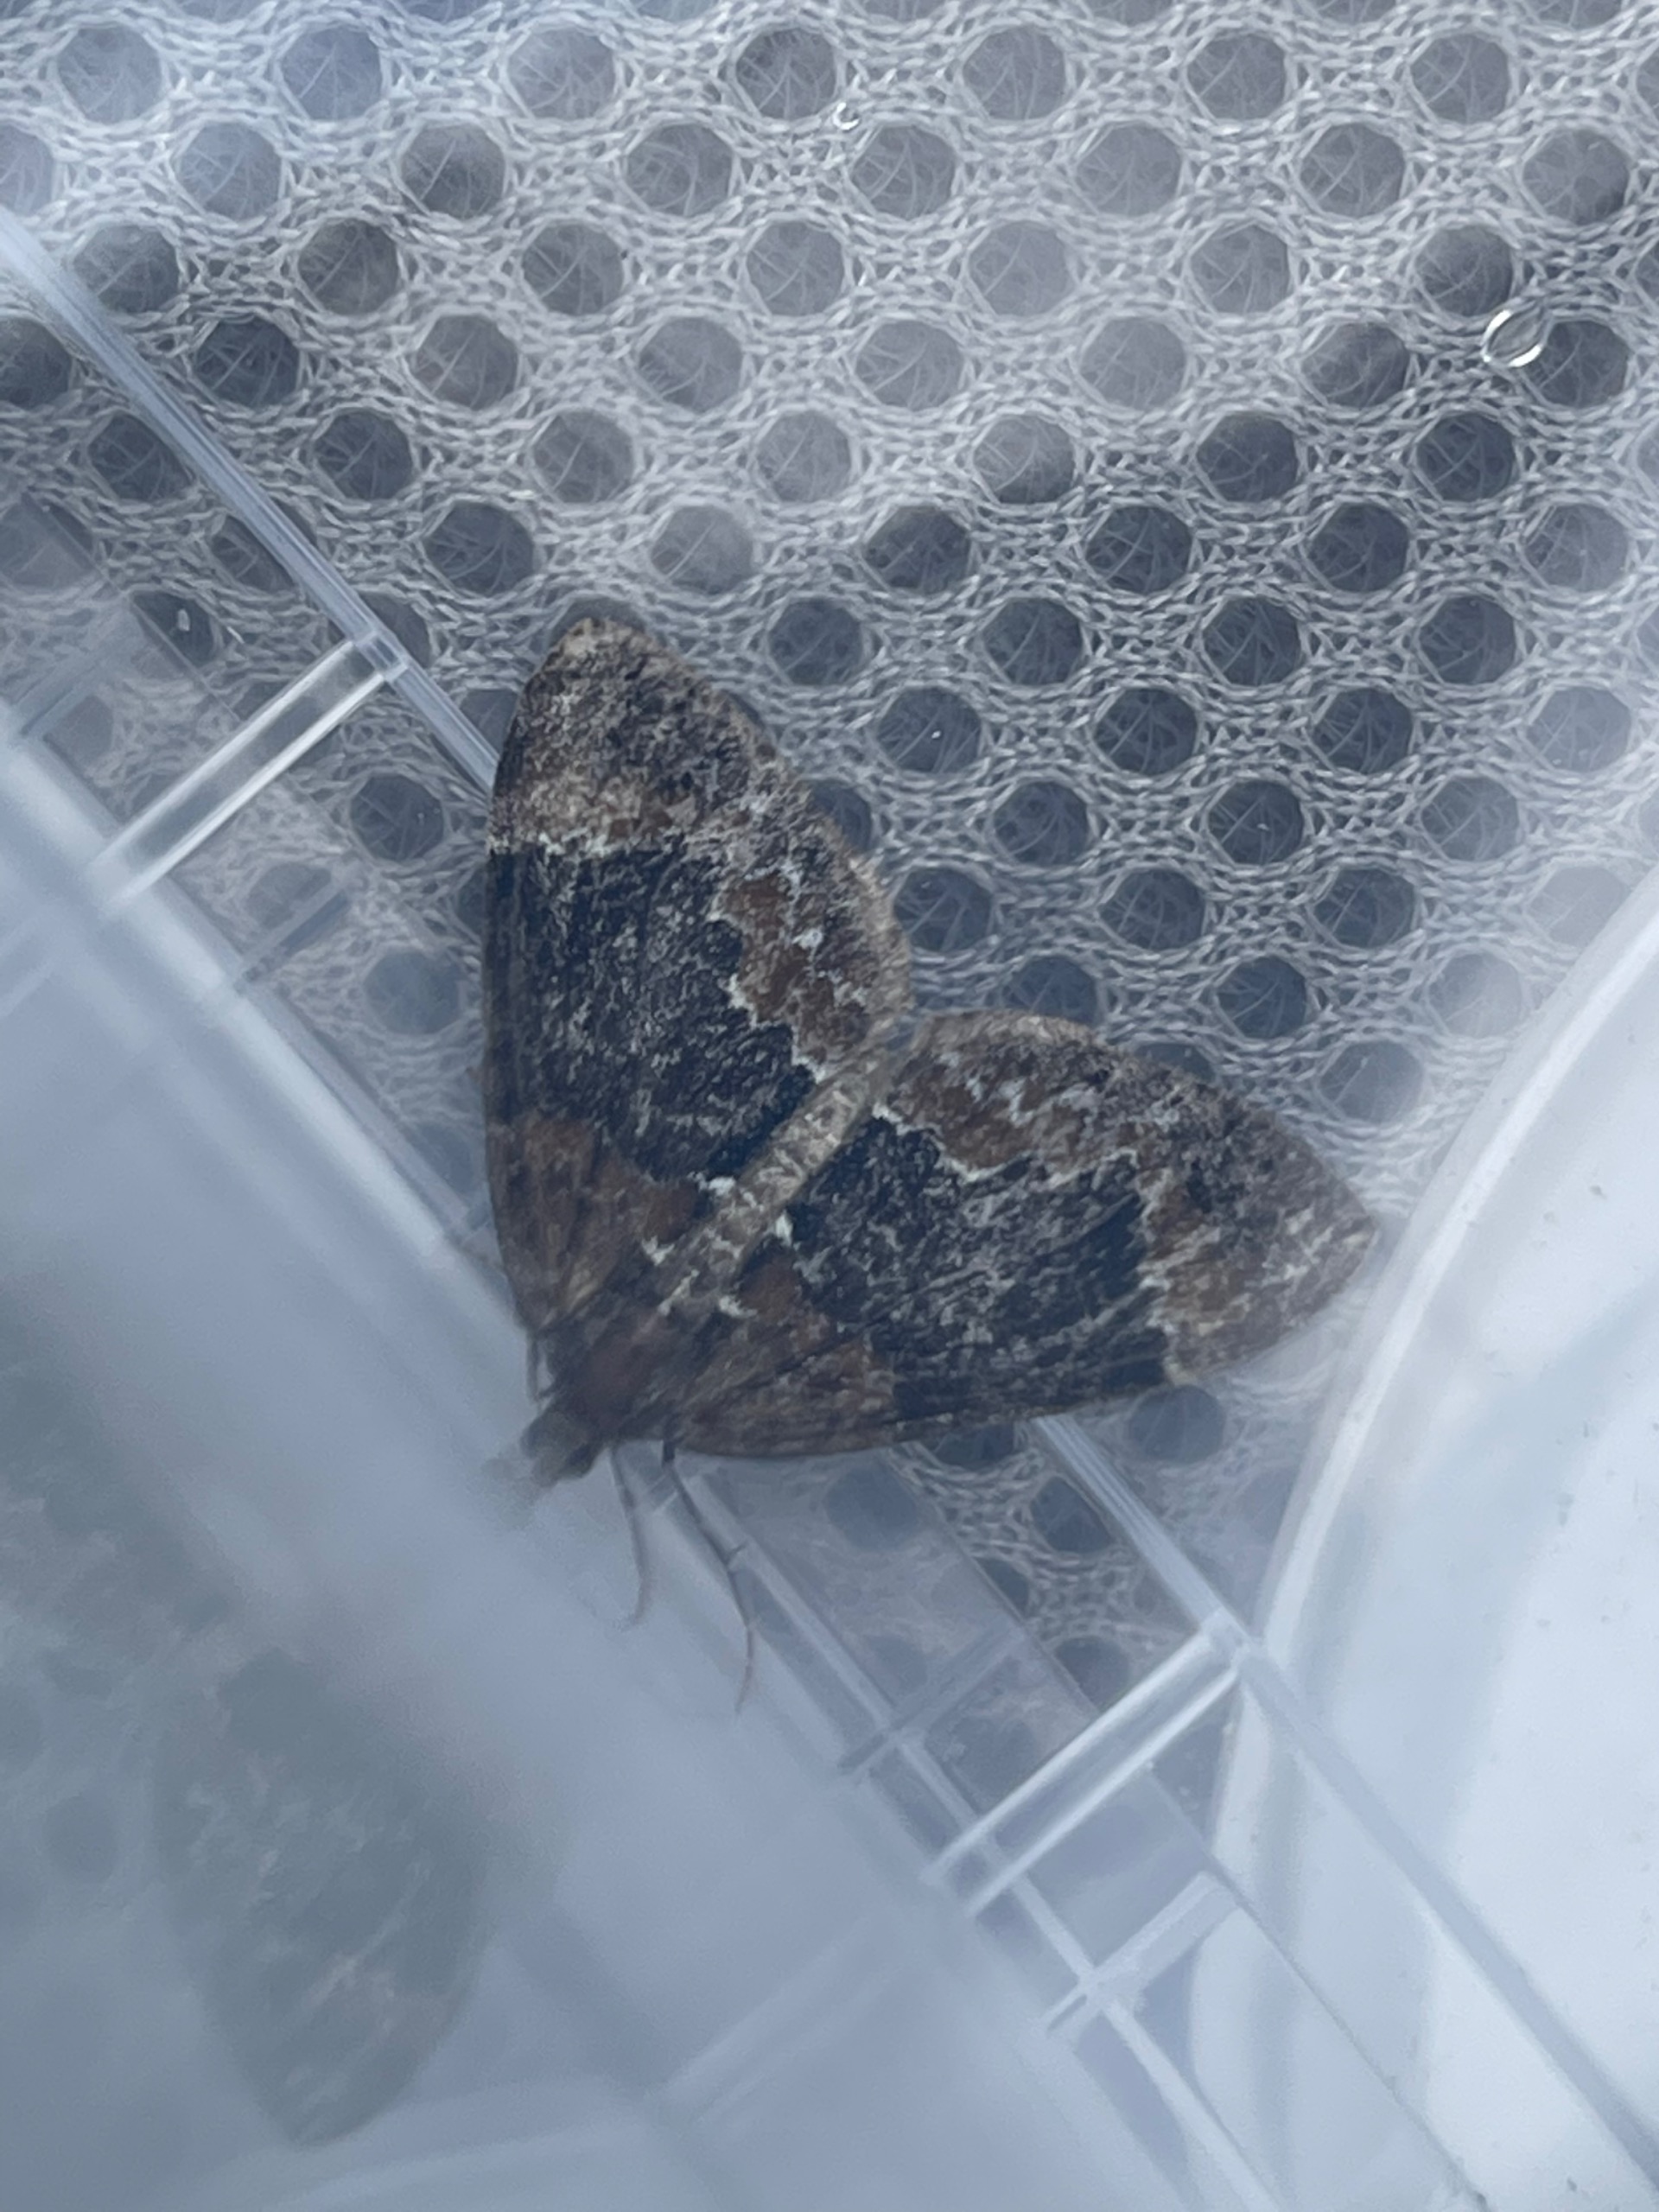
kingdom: Animalia
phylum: Arthropoda
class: Insecta
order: Lepidoptera
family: Geometridae
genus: Dysstroma
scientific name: Dysstroma citrata
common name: Spidsvinget bladmåler
